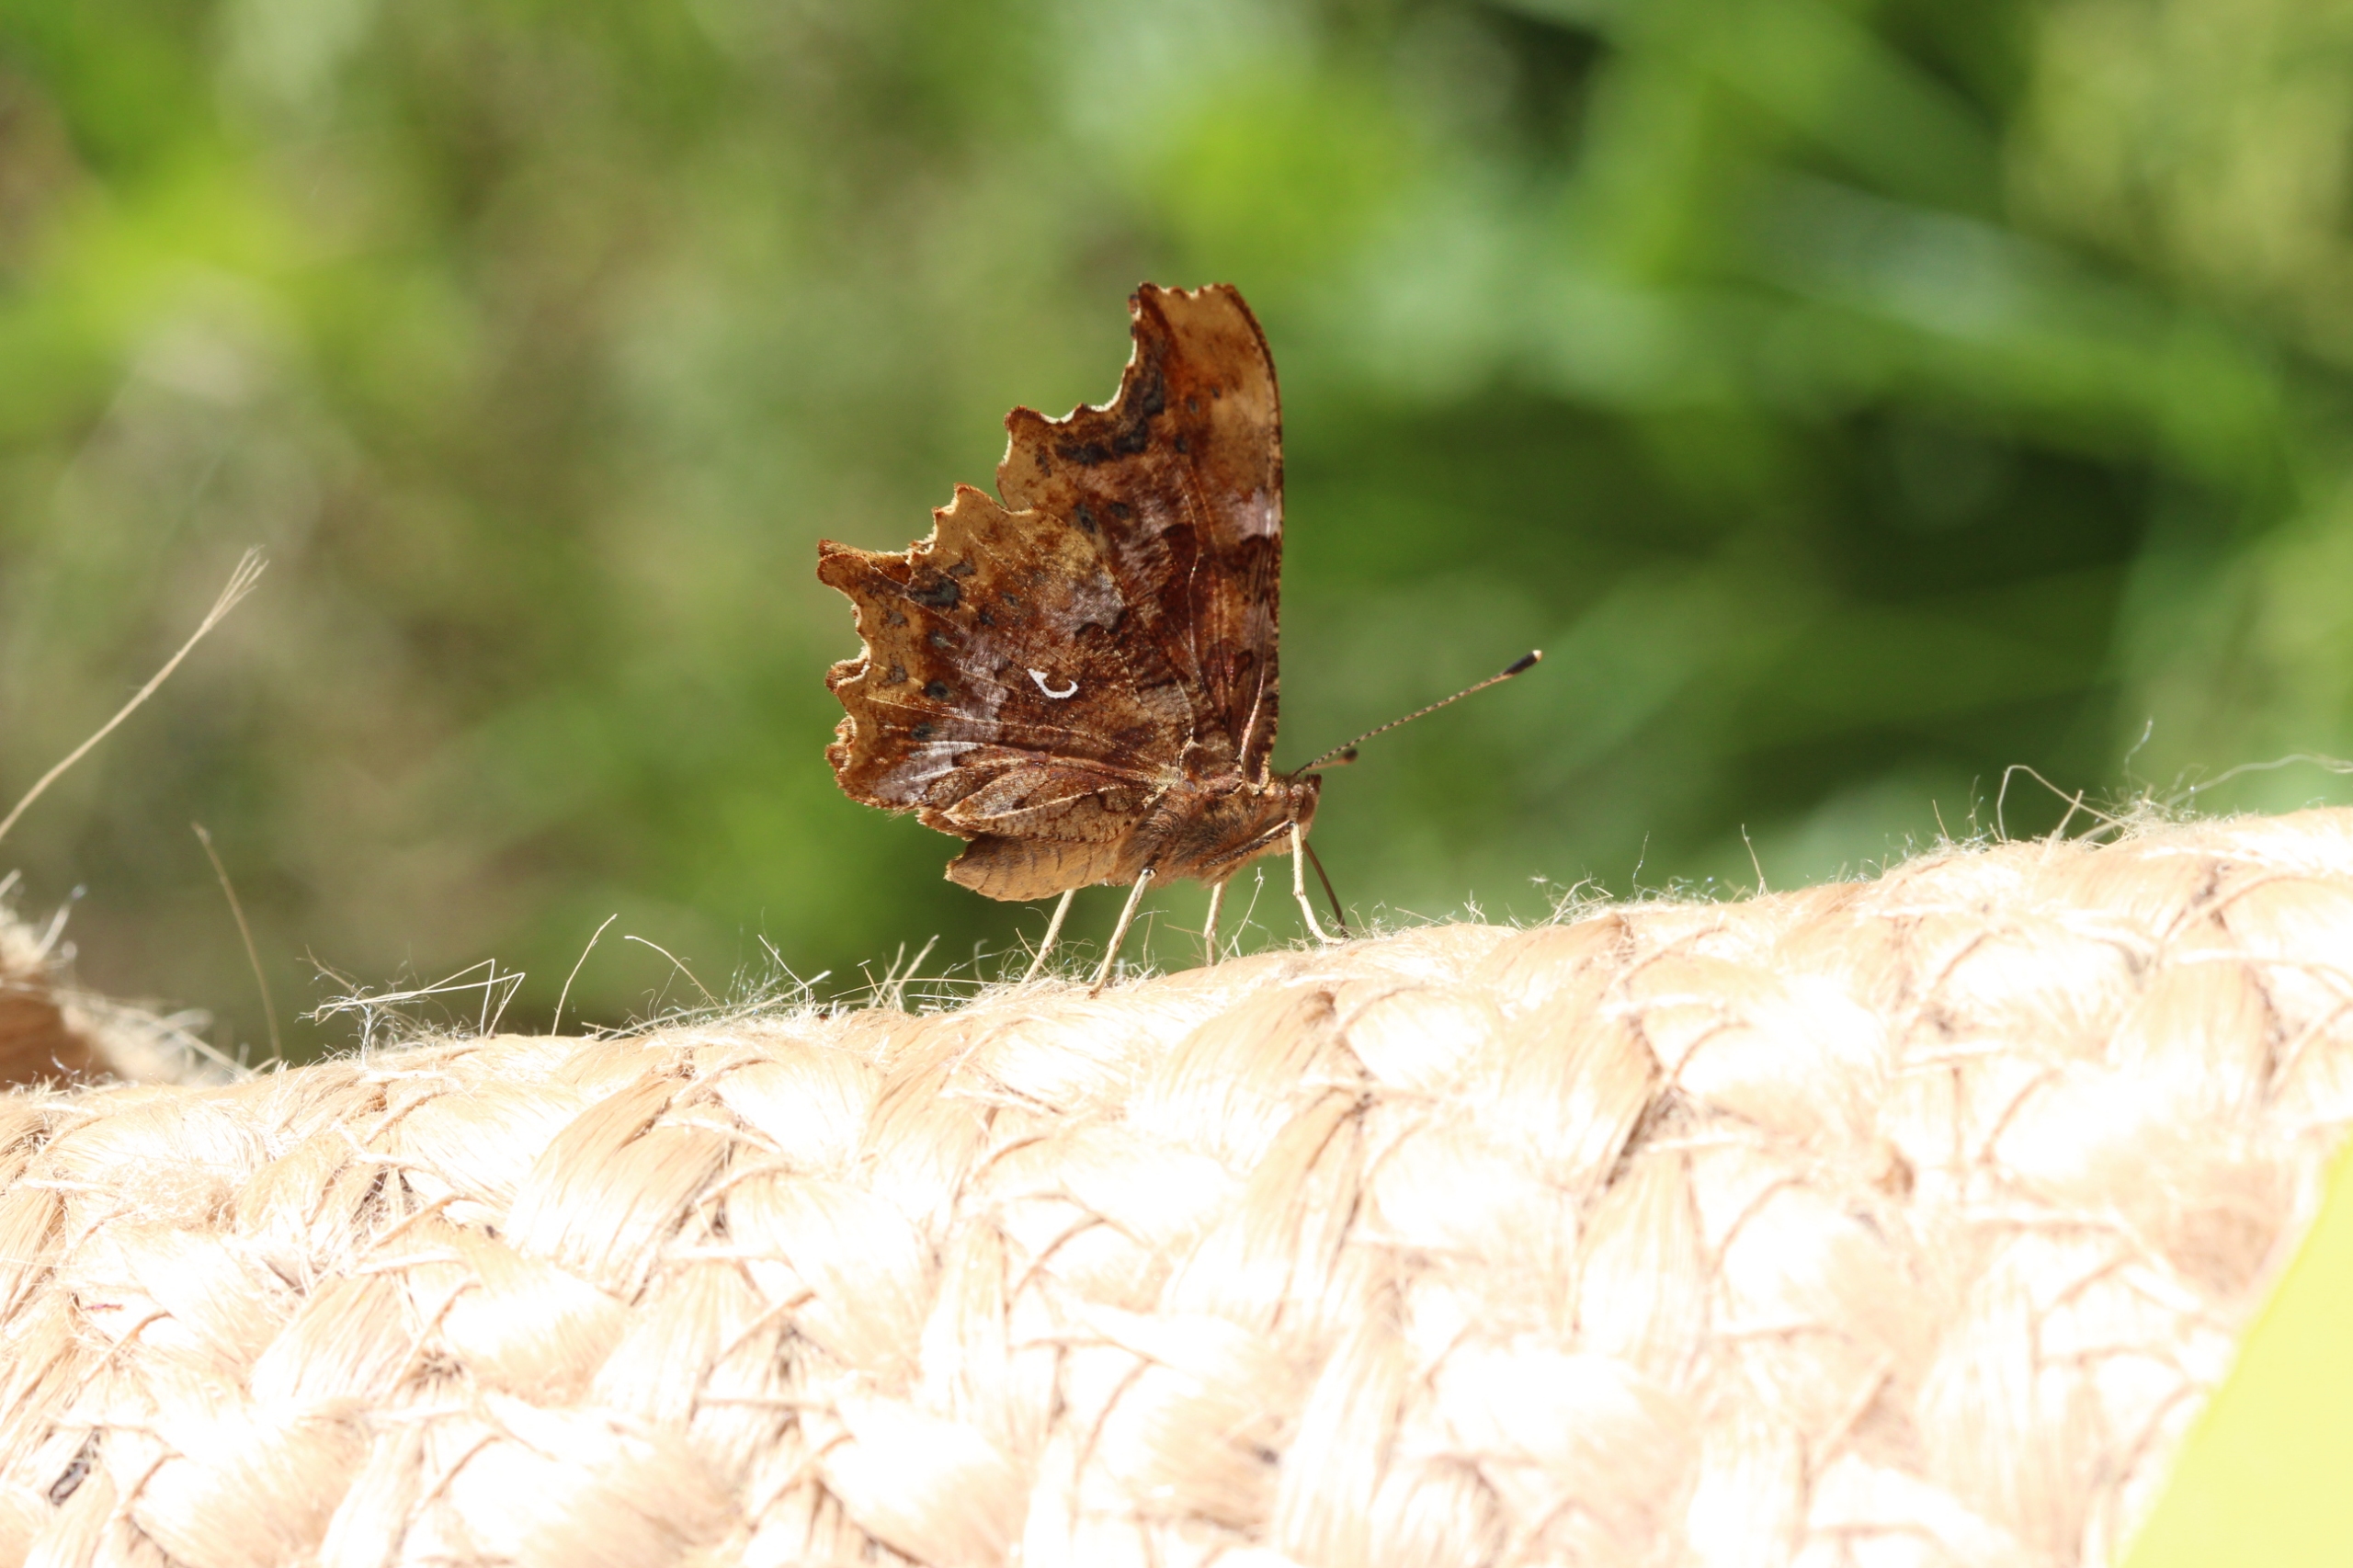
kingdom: Animalia
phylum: Arthropoda
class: Insecta
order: Lepidoptera
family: Nymphalidae
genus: Polygonia
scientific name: Polygonia c-album
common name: Det hvide C
